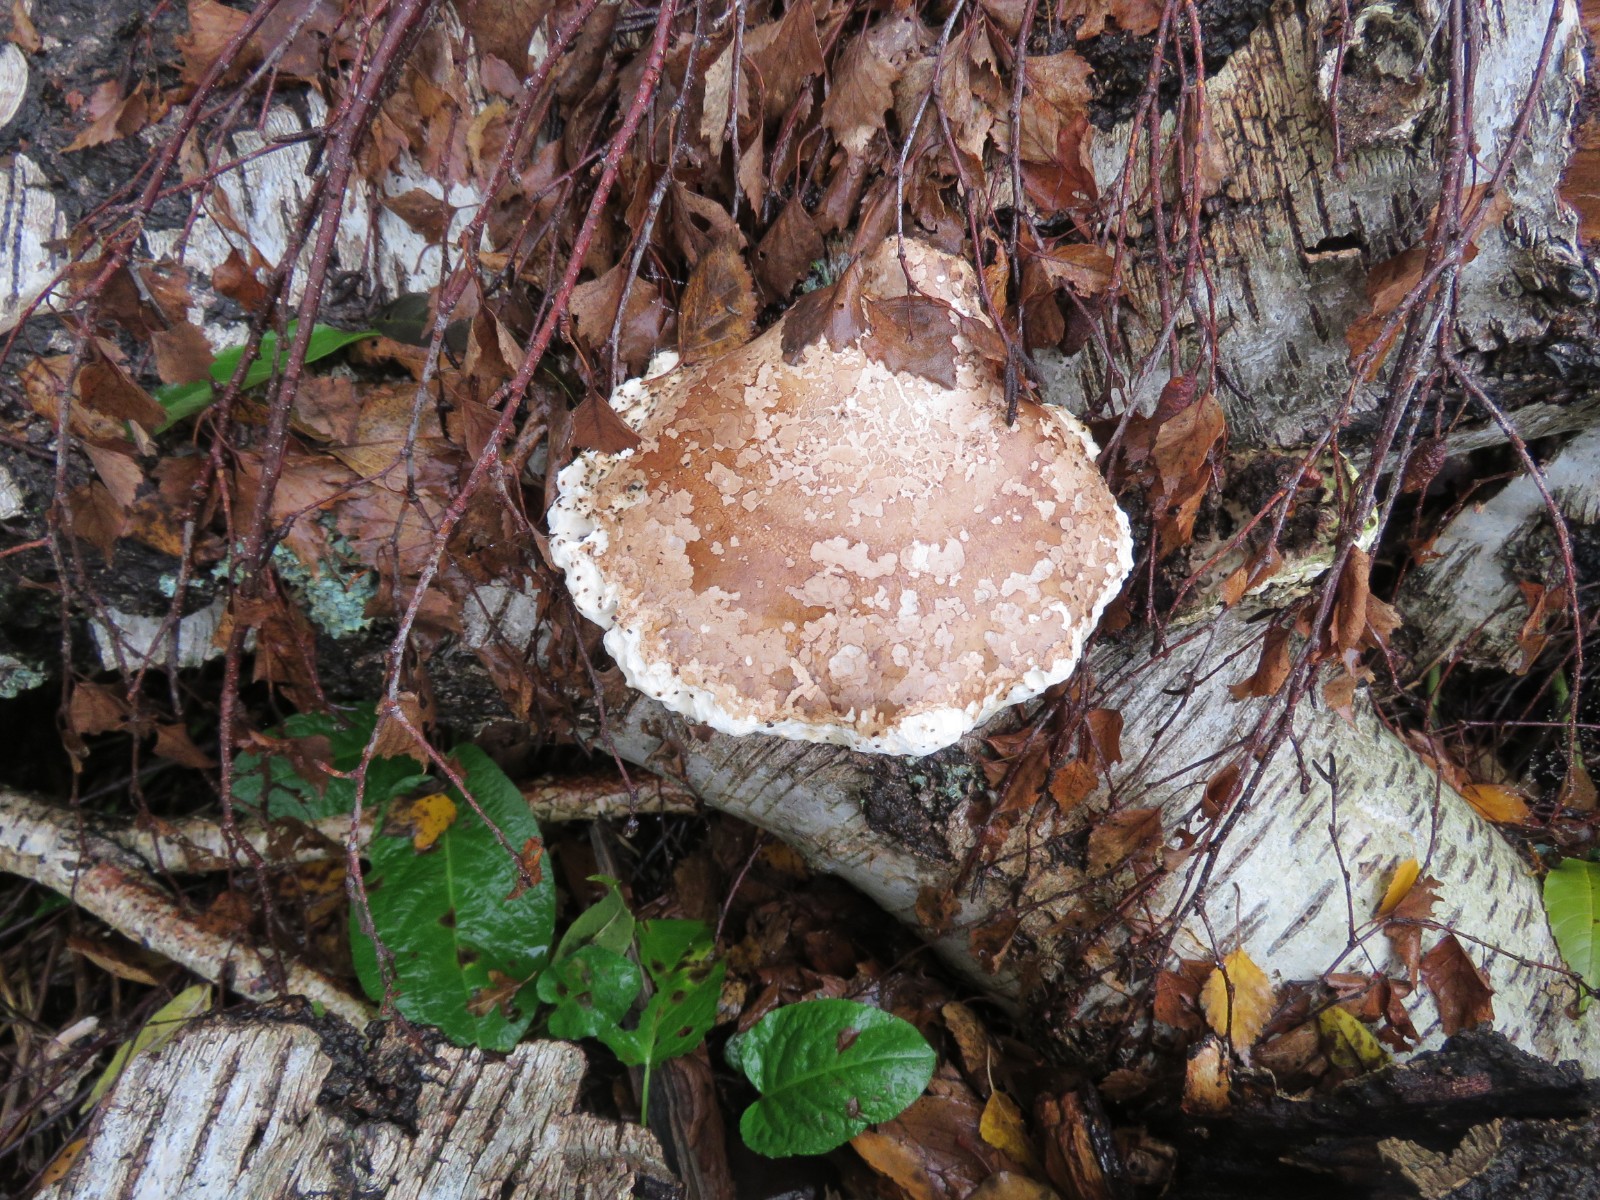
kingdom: Fungi
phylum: Basidiomycota
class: Agaricomycetes
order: Polyporales
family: Fomitopsidaceae
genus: Fomitopsis
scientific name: Fomitopsis betulina
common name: birkeporesvamp
